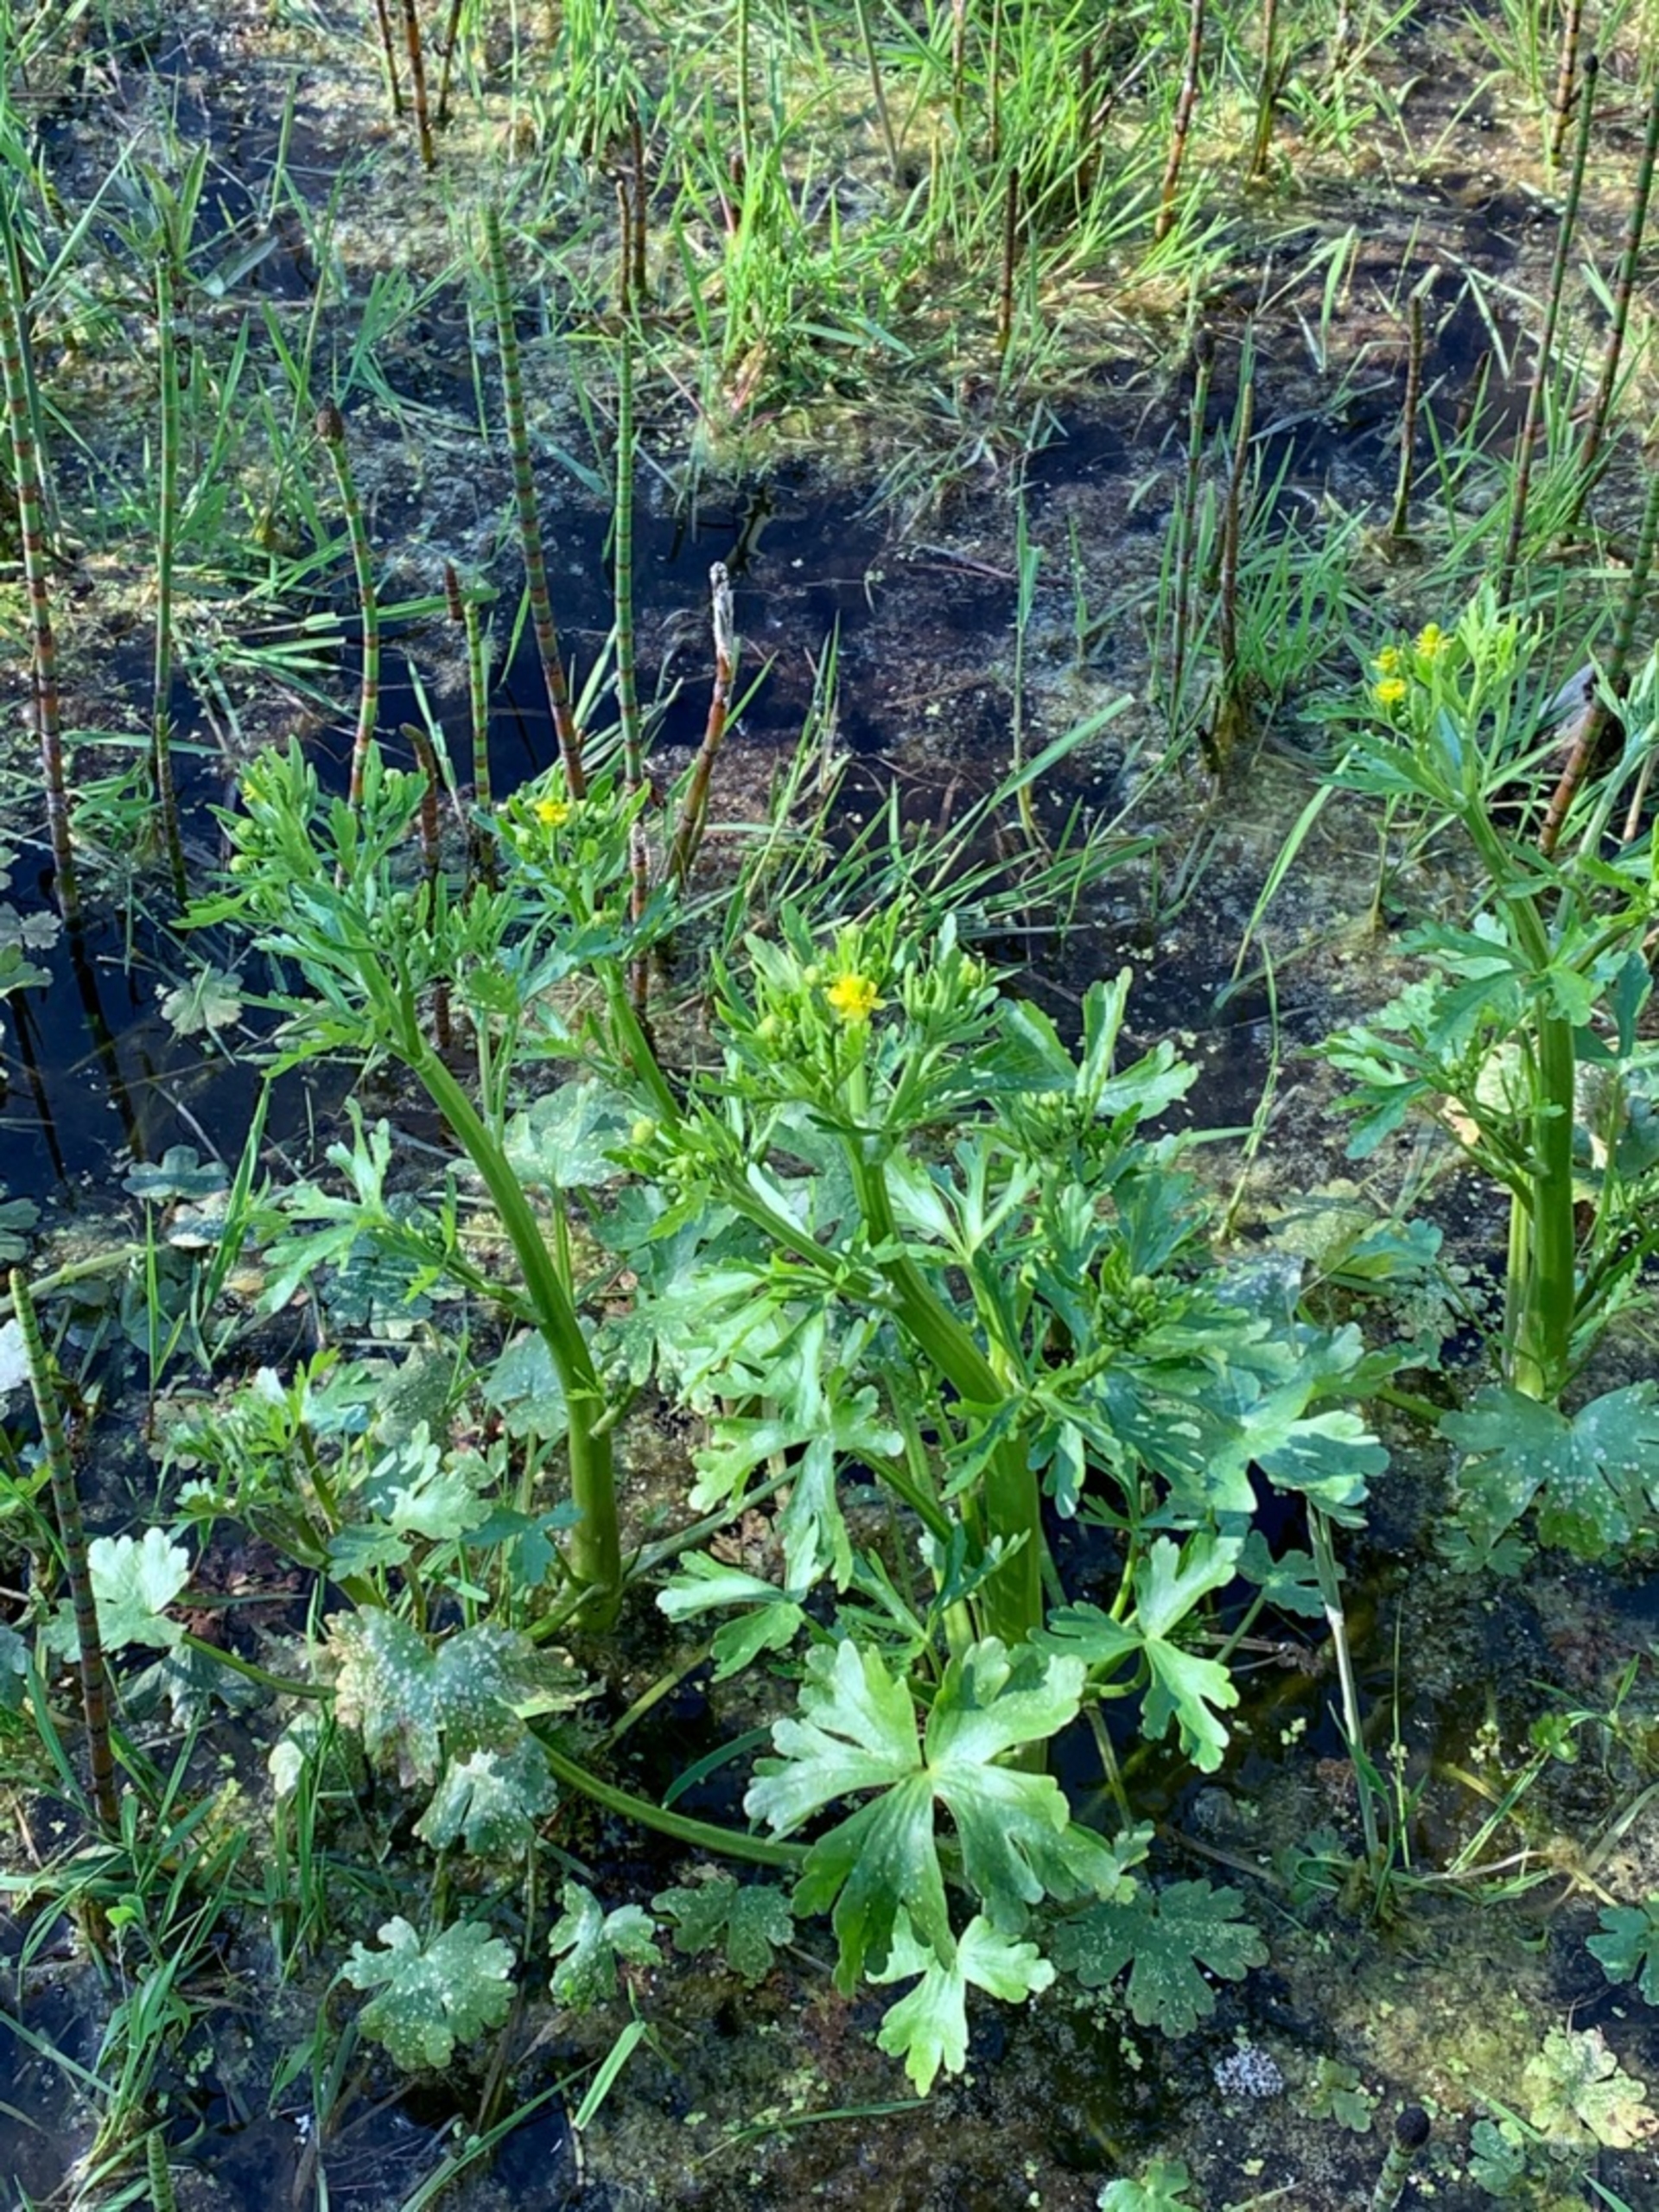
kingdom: Plantae
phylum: Tracheophyta
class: Magnoliopsida
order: Ranunculales
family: Ranunculaceae
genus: Ranunculus
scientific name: Ranunculus sceleratus
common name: Tigger-ranunkel
